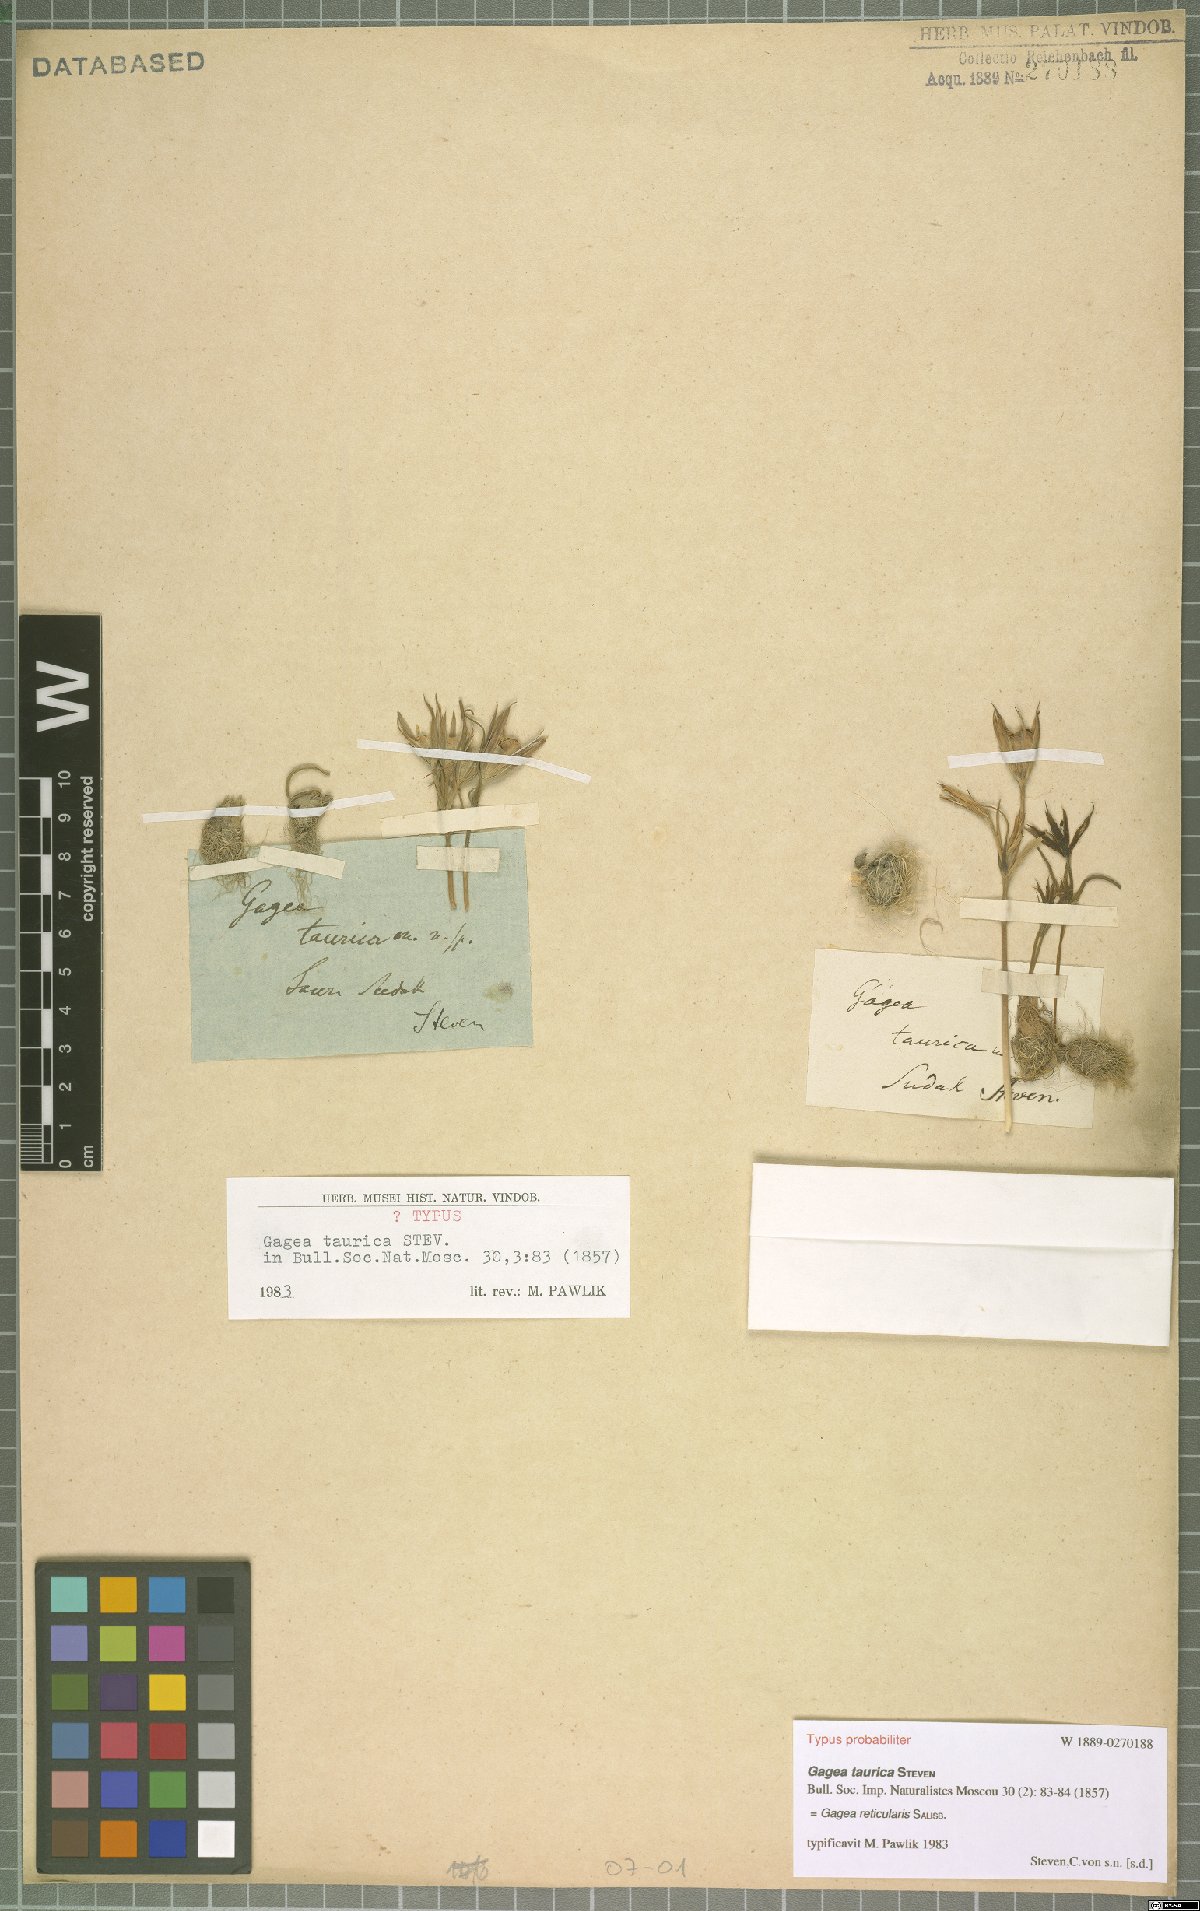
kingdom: Plantae
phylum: Tracheophyta
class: Liliopsida
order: Liliales
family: Liliaceae
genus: Gagea
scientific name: Gagea taurica
